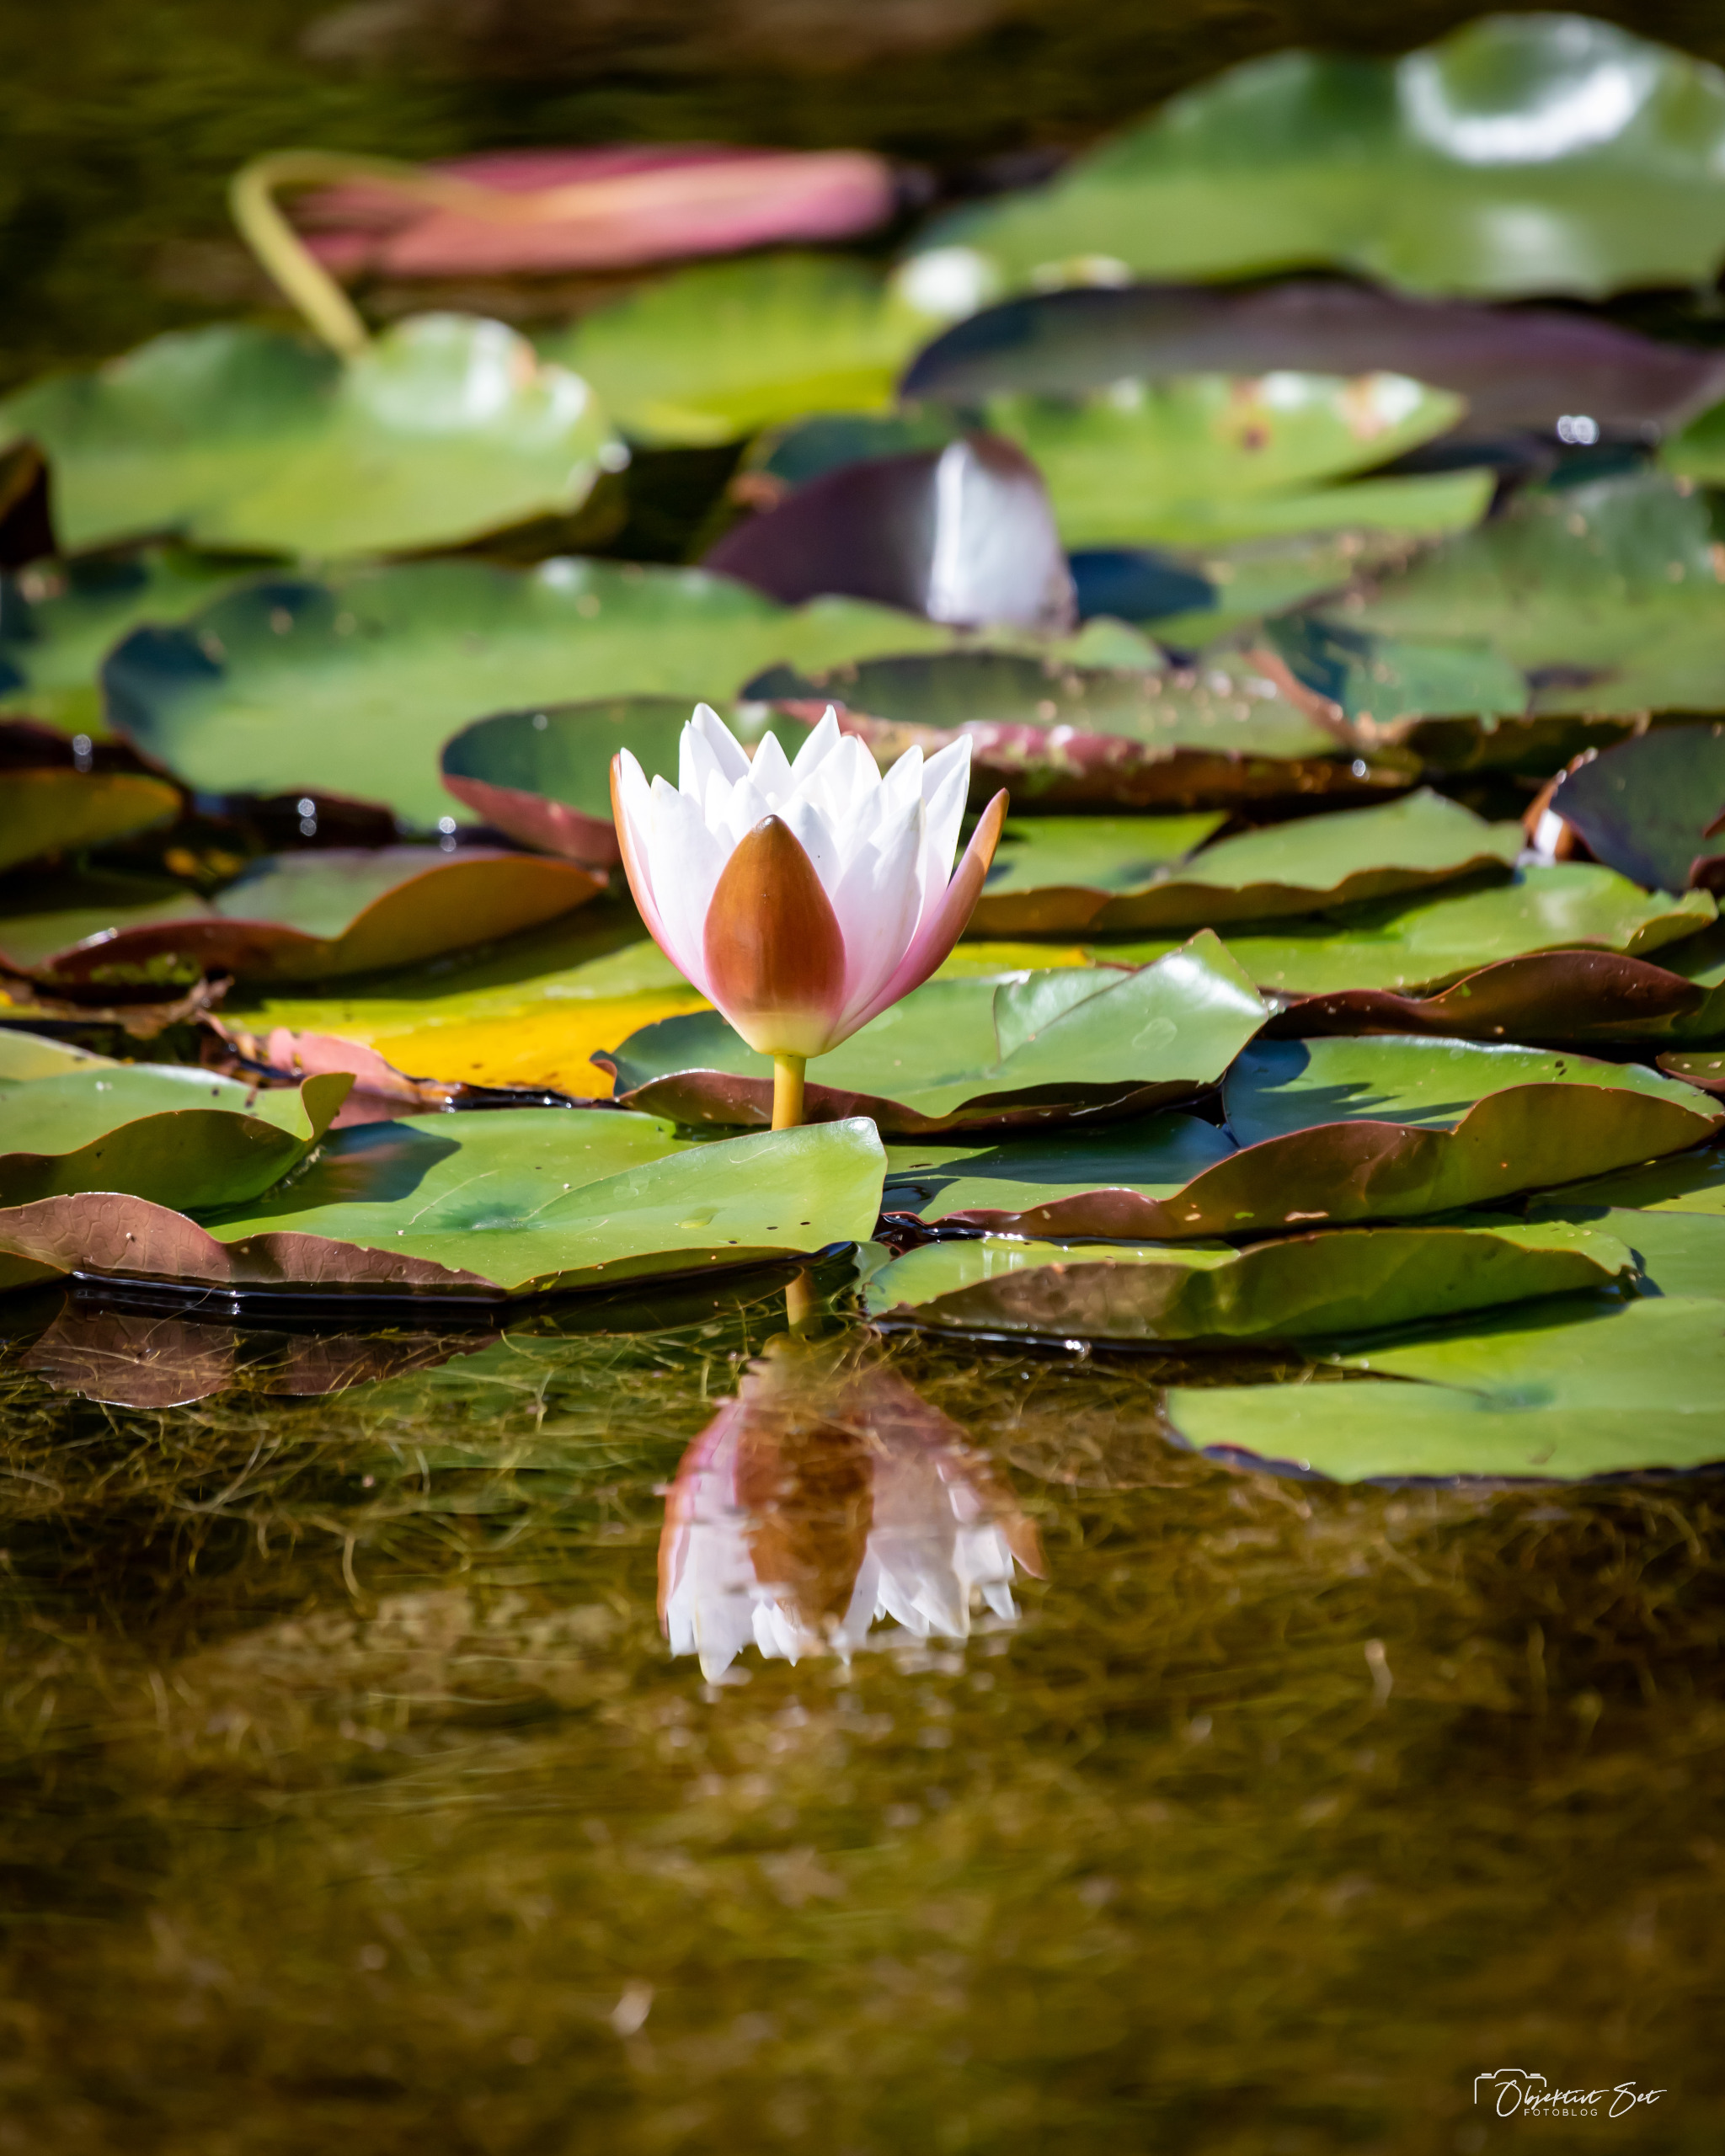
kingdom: Plantae
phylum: Tracheophyta
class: Magnoliopsida
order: Nymphaeales
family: Nymphaeaceae
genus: Nymphaea
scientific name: Nymphaea alba
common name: Hvid åkande
